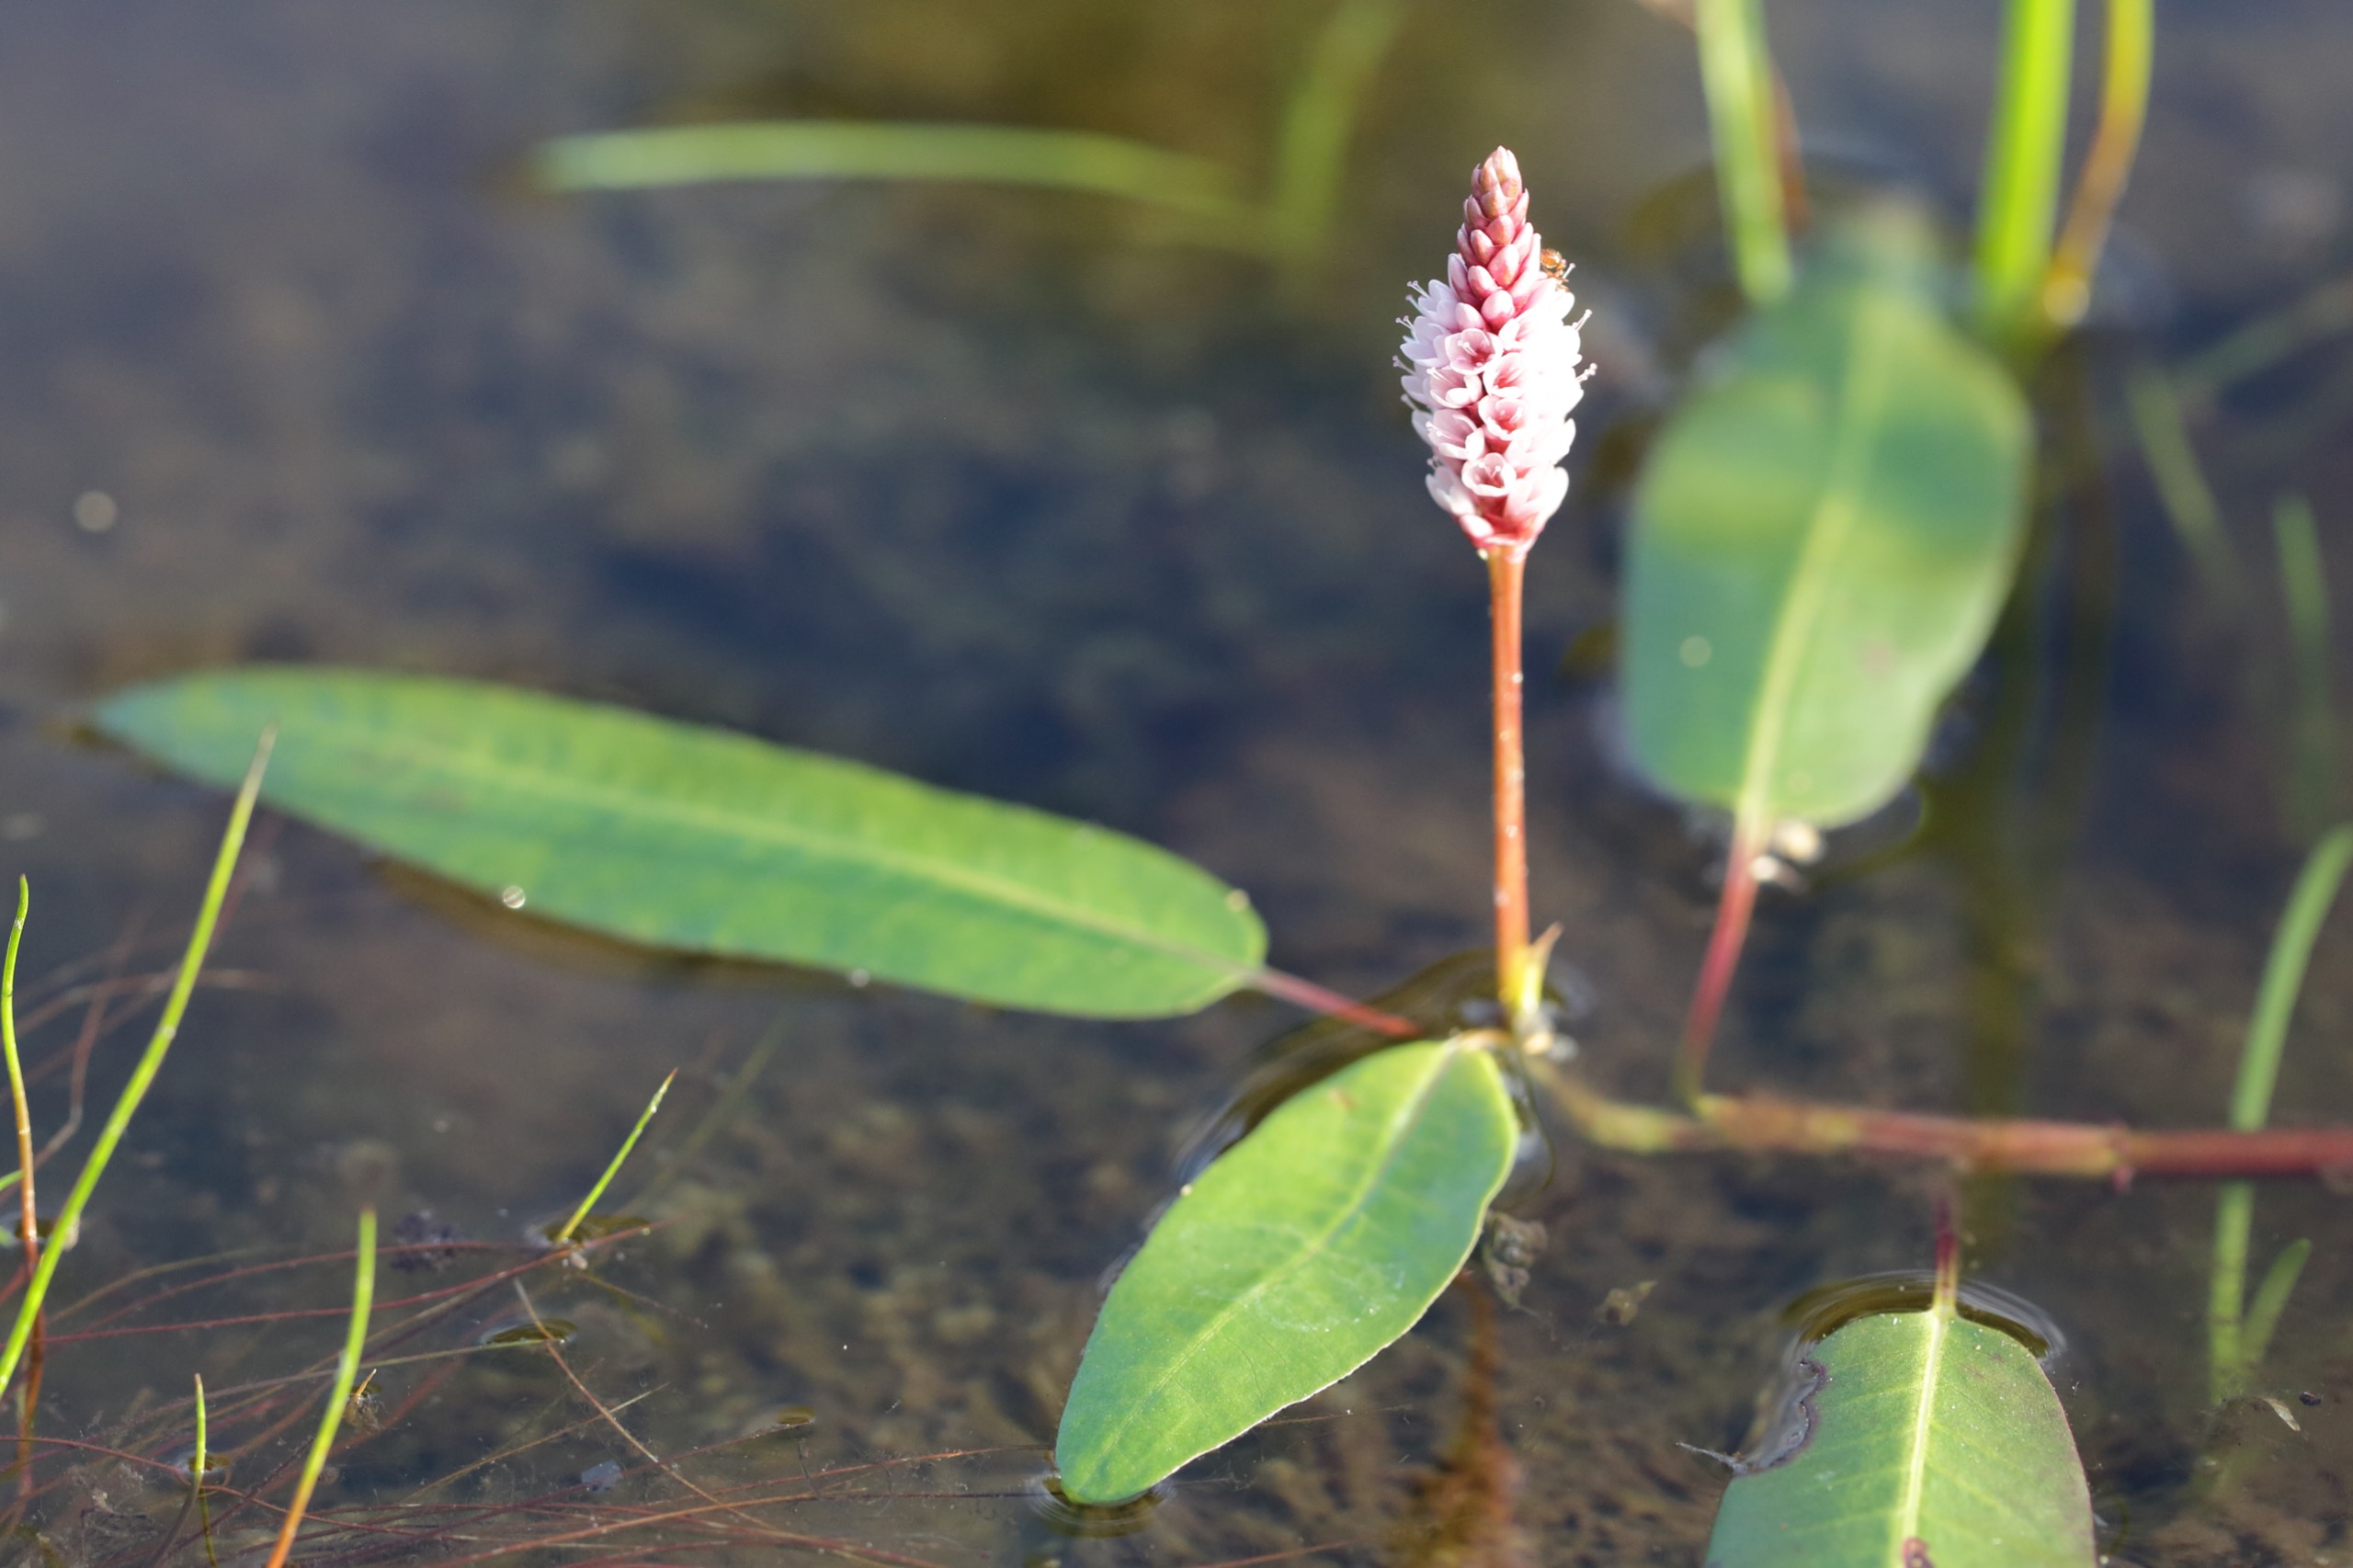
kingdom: Plantae
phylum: Tracheophyta
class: Magnoliopsida
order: Caryophyllales
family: Polygonaceae
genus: Persicaria
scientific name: Persicaria amphibia
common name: Vand-pileurt
